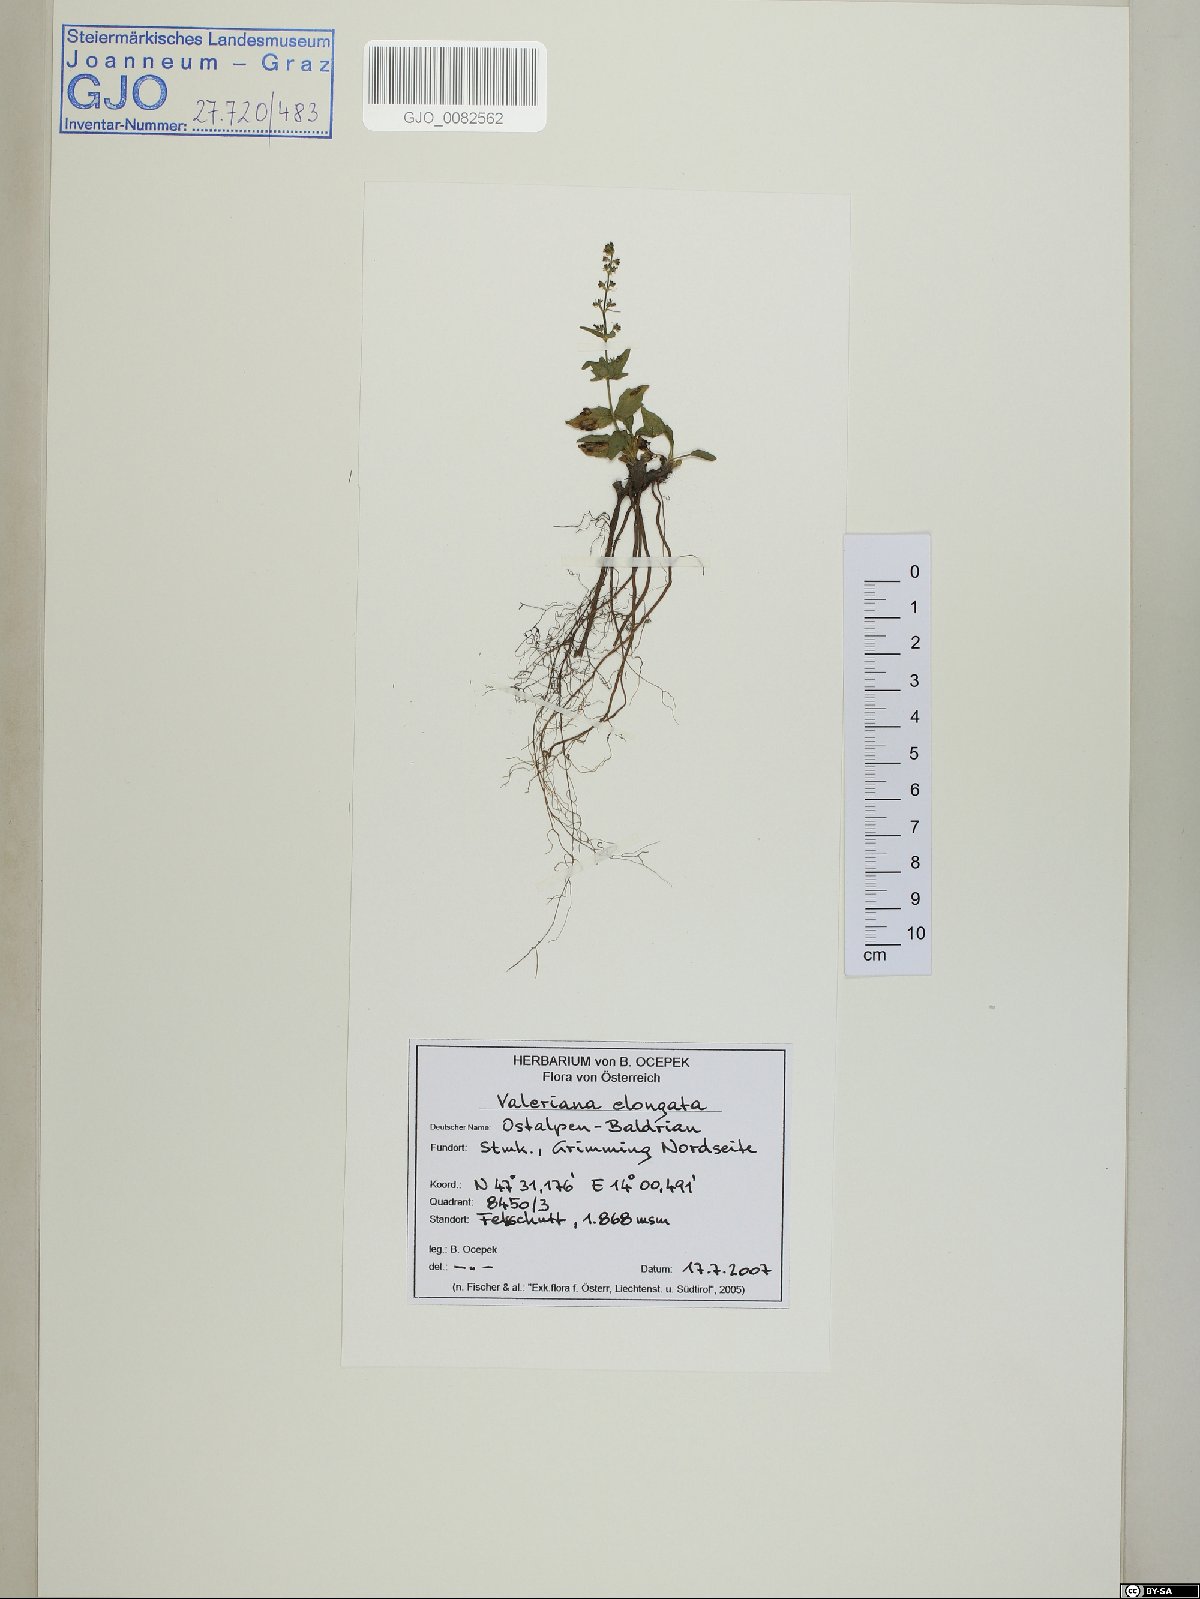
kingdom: Plantae
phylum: Tracheophyta
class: Magnoliopsida
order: Dipsacales
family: Caprifoliaceae
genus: Valeriana
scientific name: Valeriana elongata
